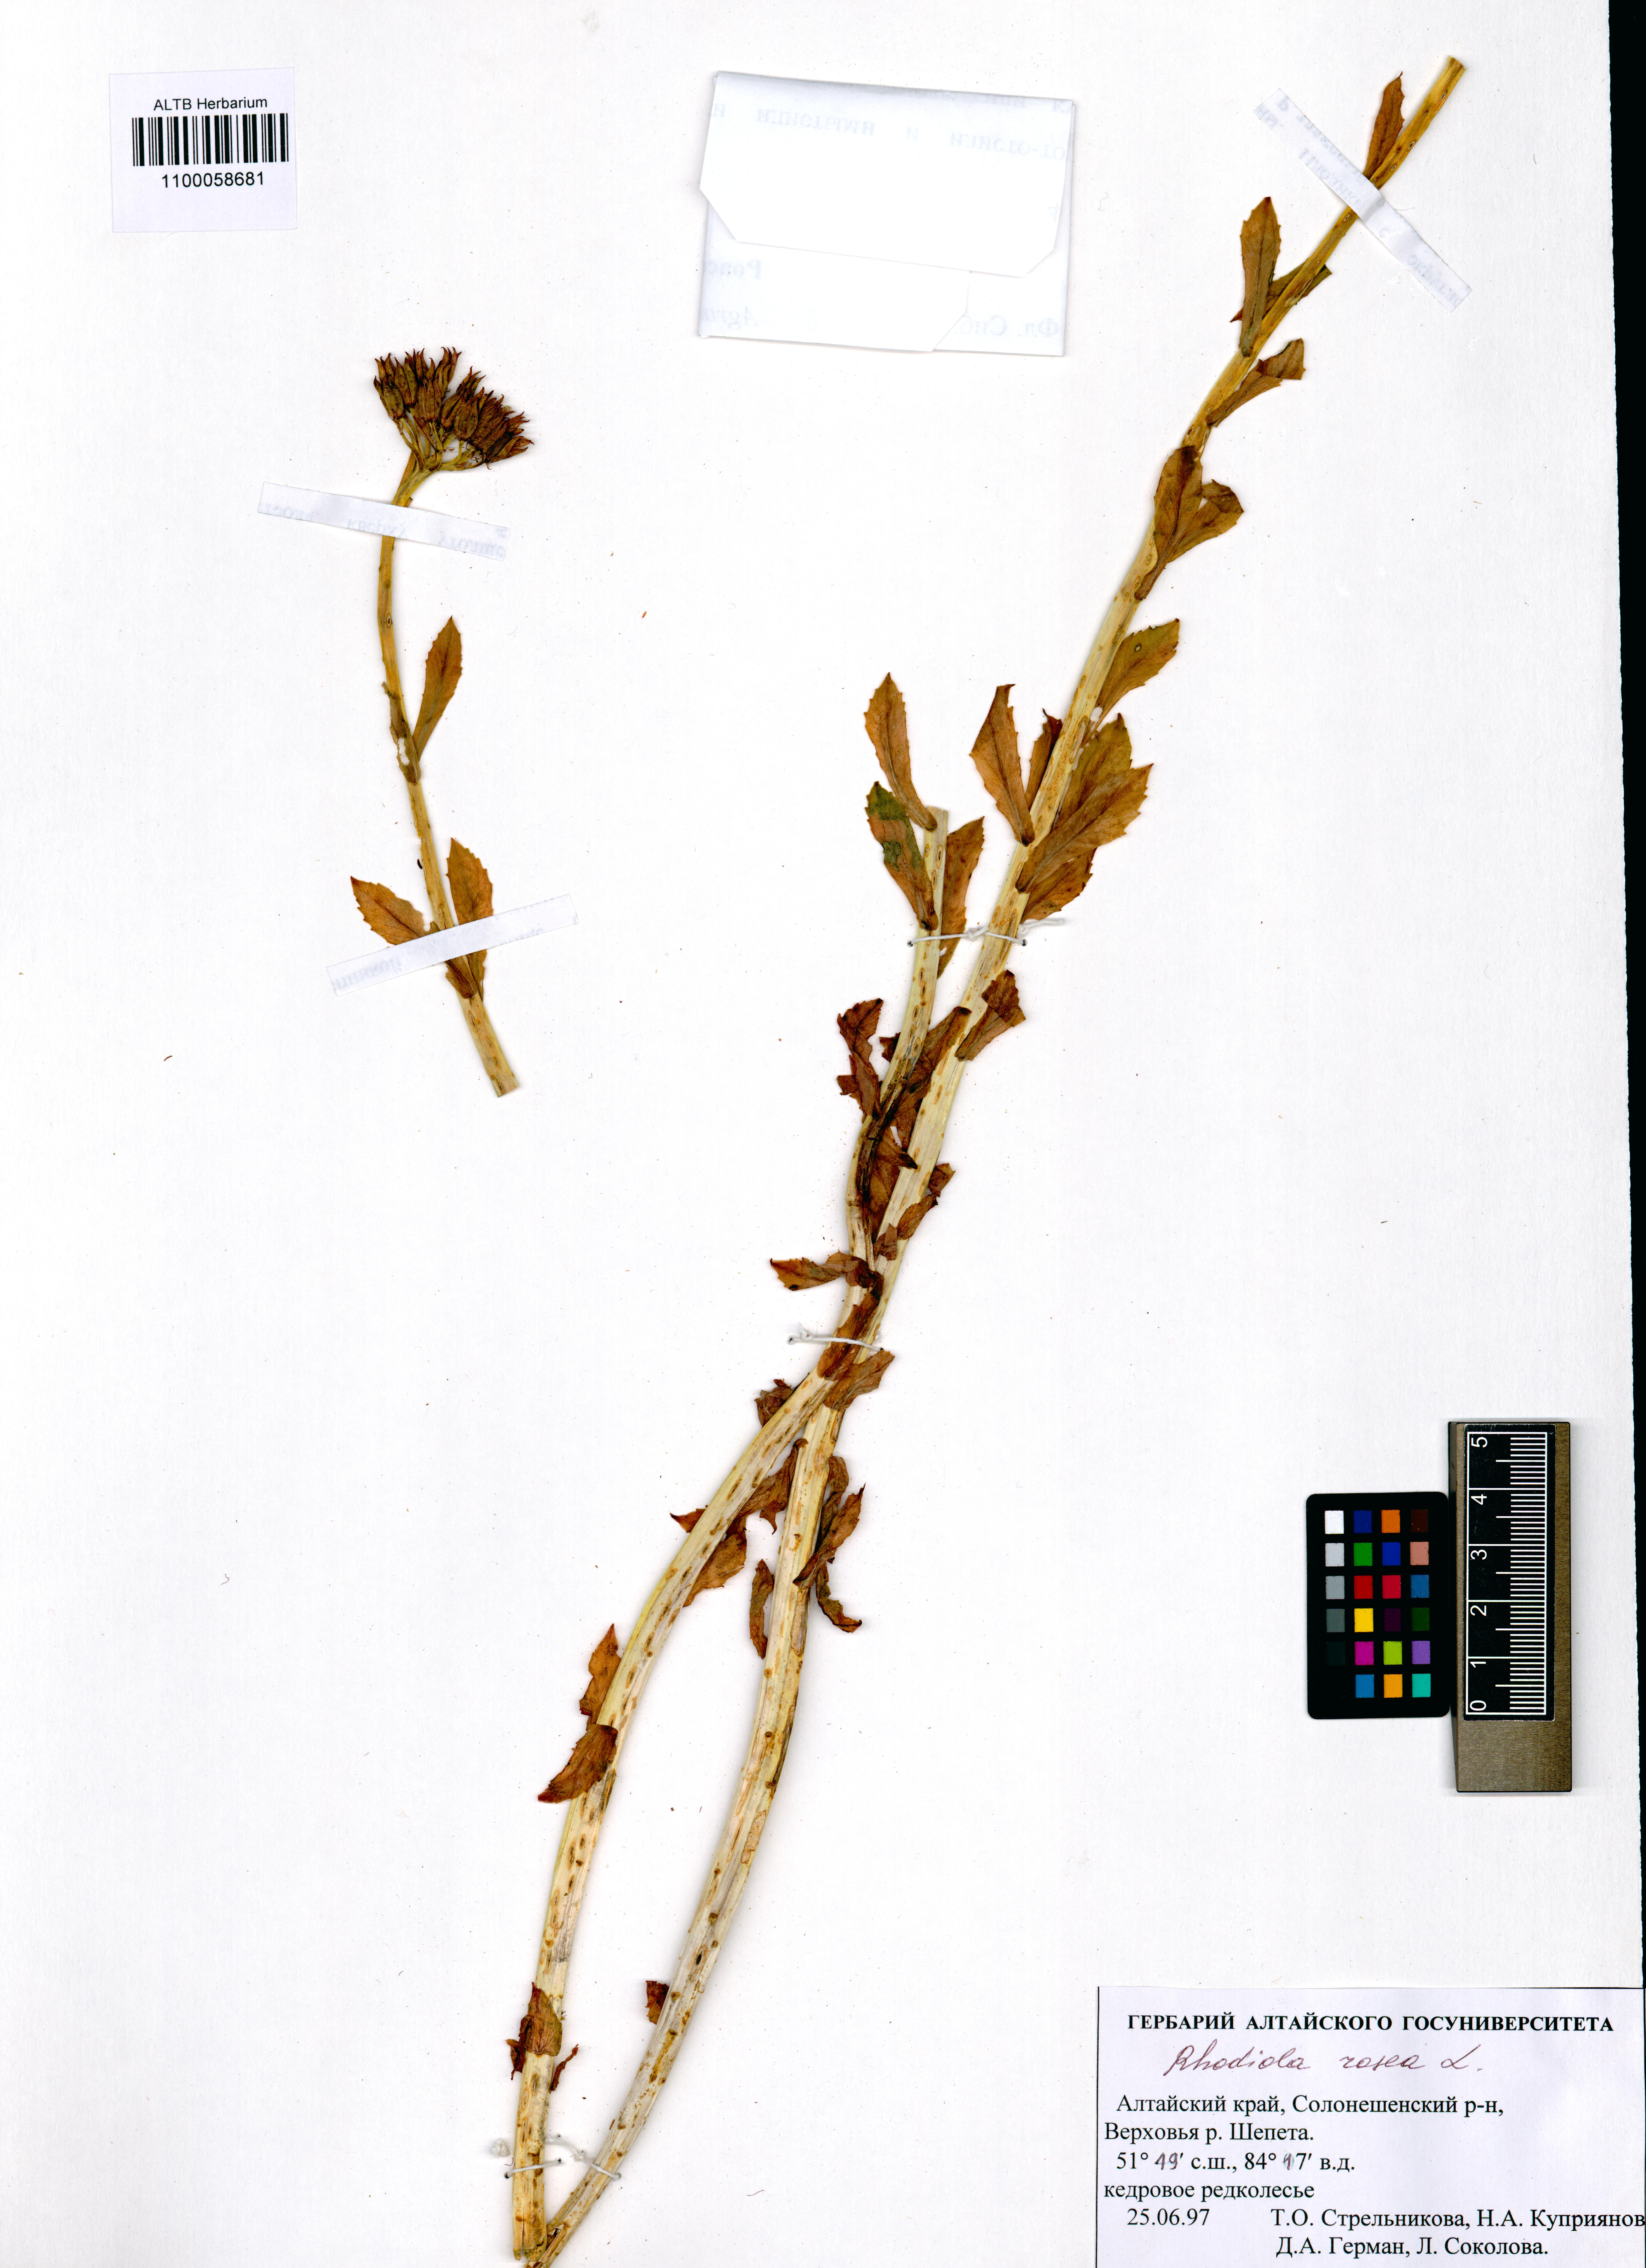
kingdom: Plantae
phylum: Tracheophyta
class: Magnoliopsida
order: Saxifragales
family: Crassulaceae
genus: Rhodiola
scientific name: Rhodiola rosea
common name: Roseroot
